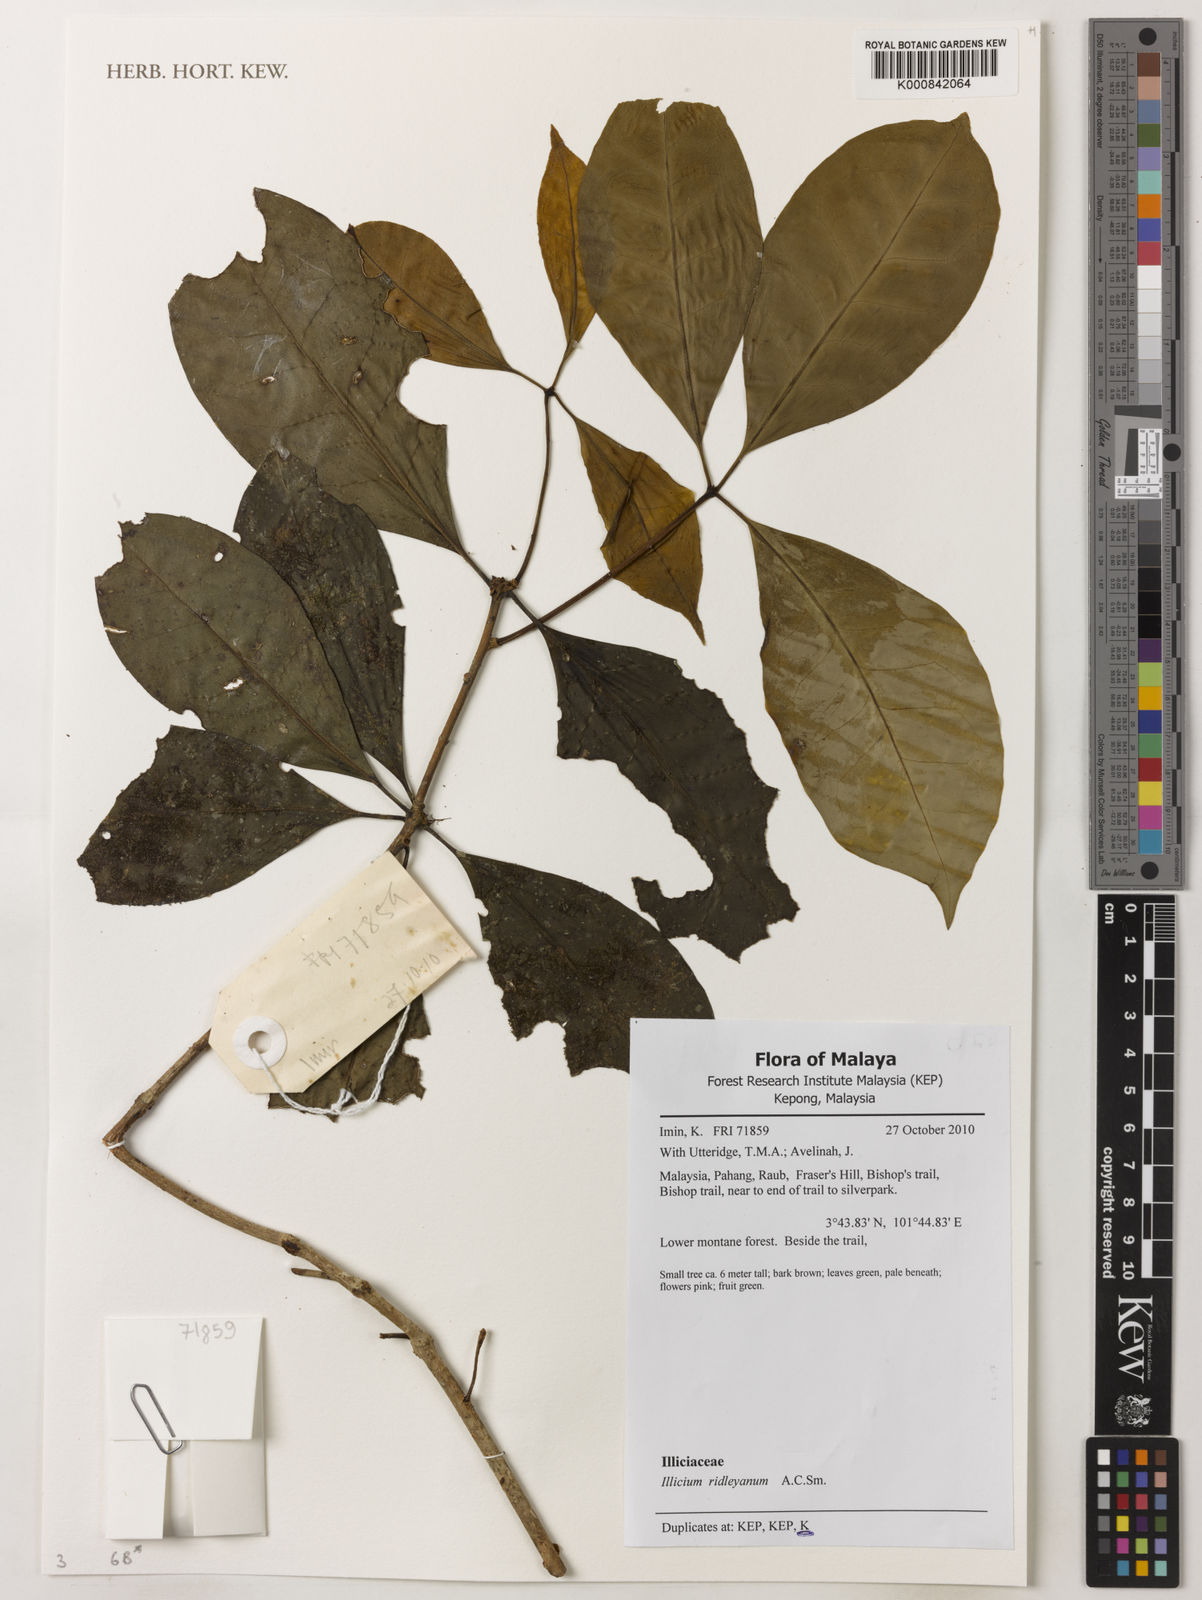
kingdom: Plantae
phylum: Tracheophyta
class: Magnoliopsida
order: Austrobaileyales
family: Schisandraceae
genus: Illicium
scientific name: Illicium ridleyanum
